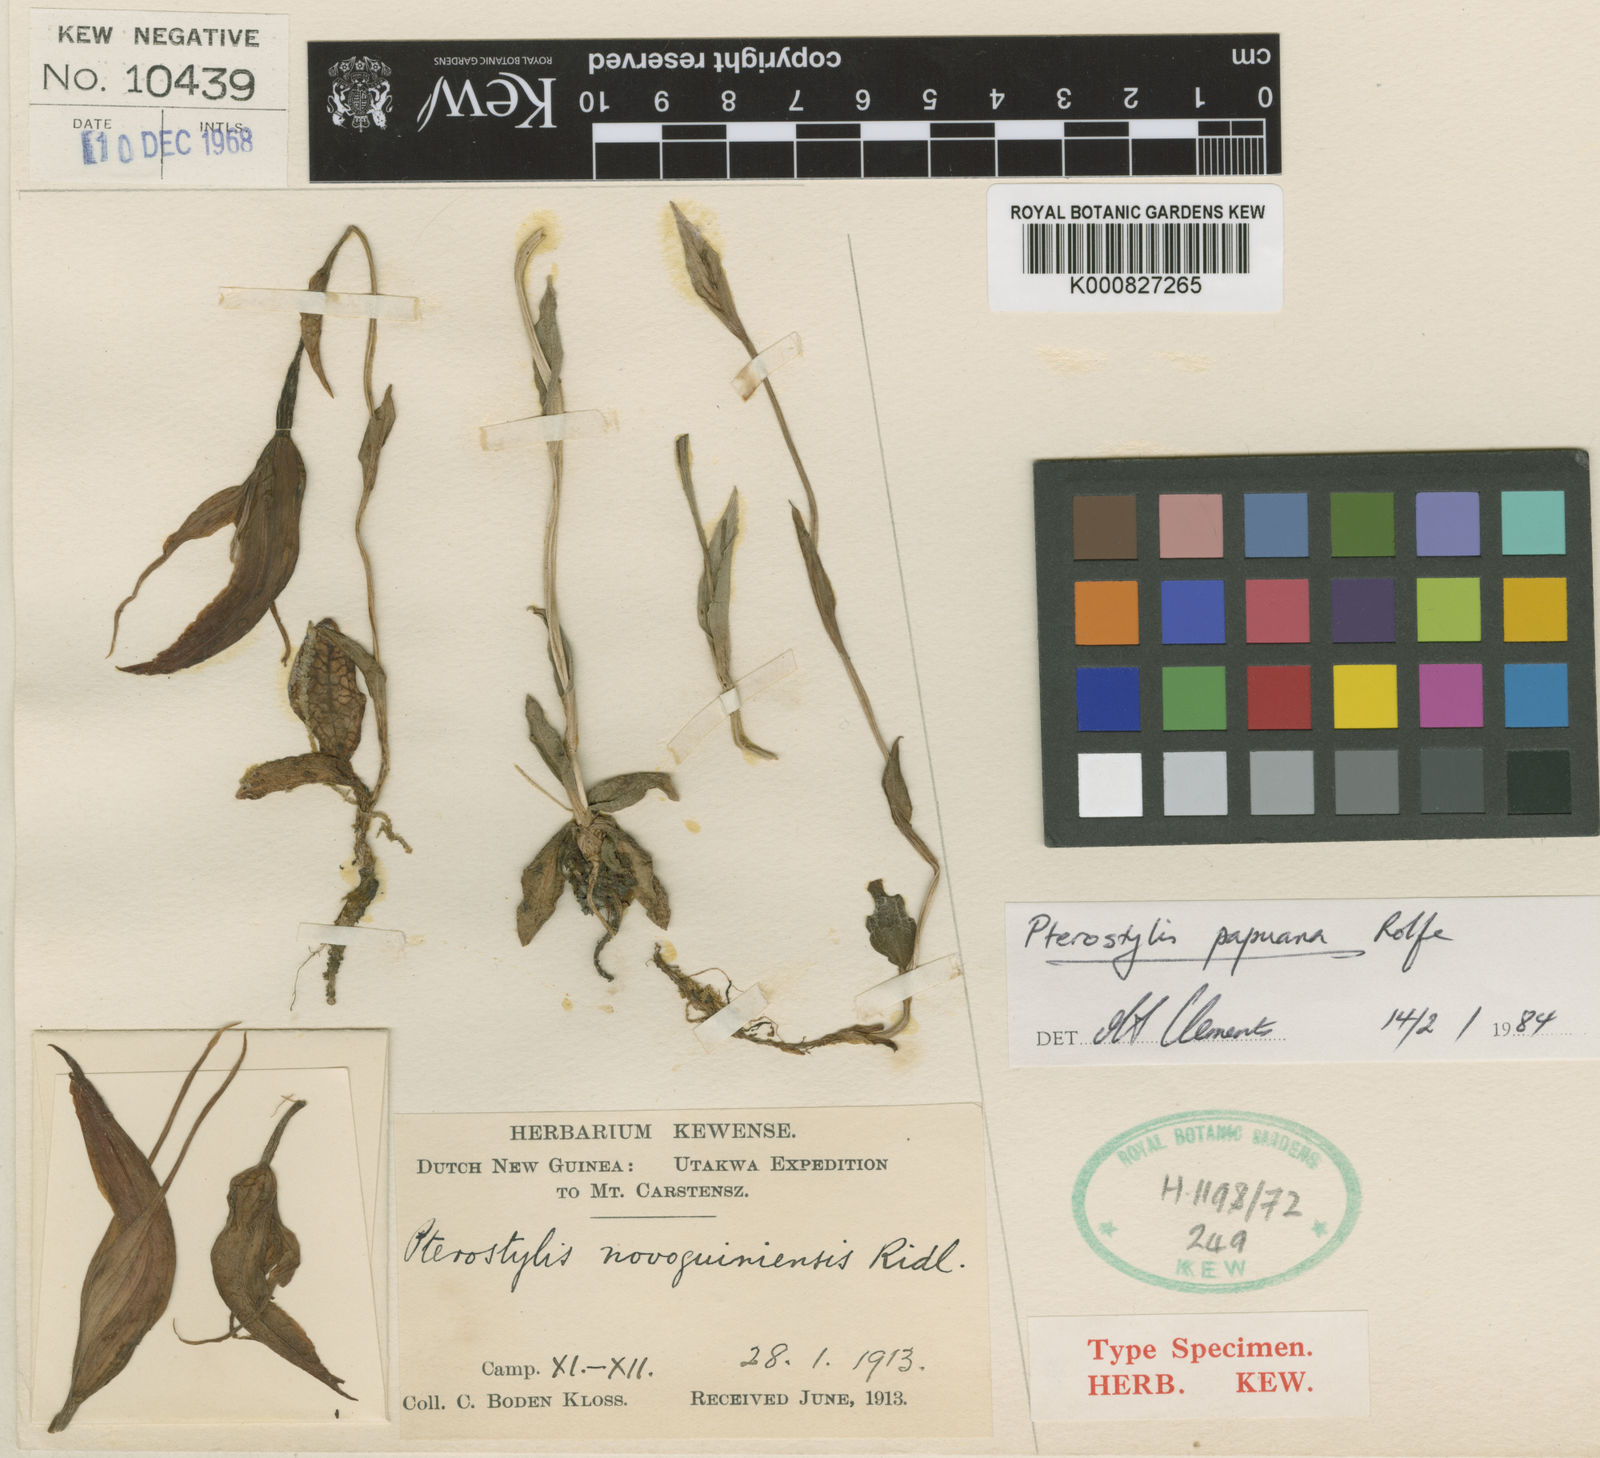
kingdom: Plantae
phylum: Tracheophyta
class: Liliopsida
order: Asparagales
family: Orchidaceae
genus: Pterostylis
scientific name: Pterostylis papuana
